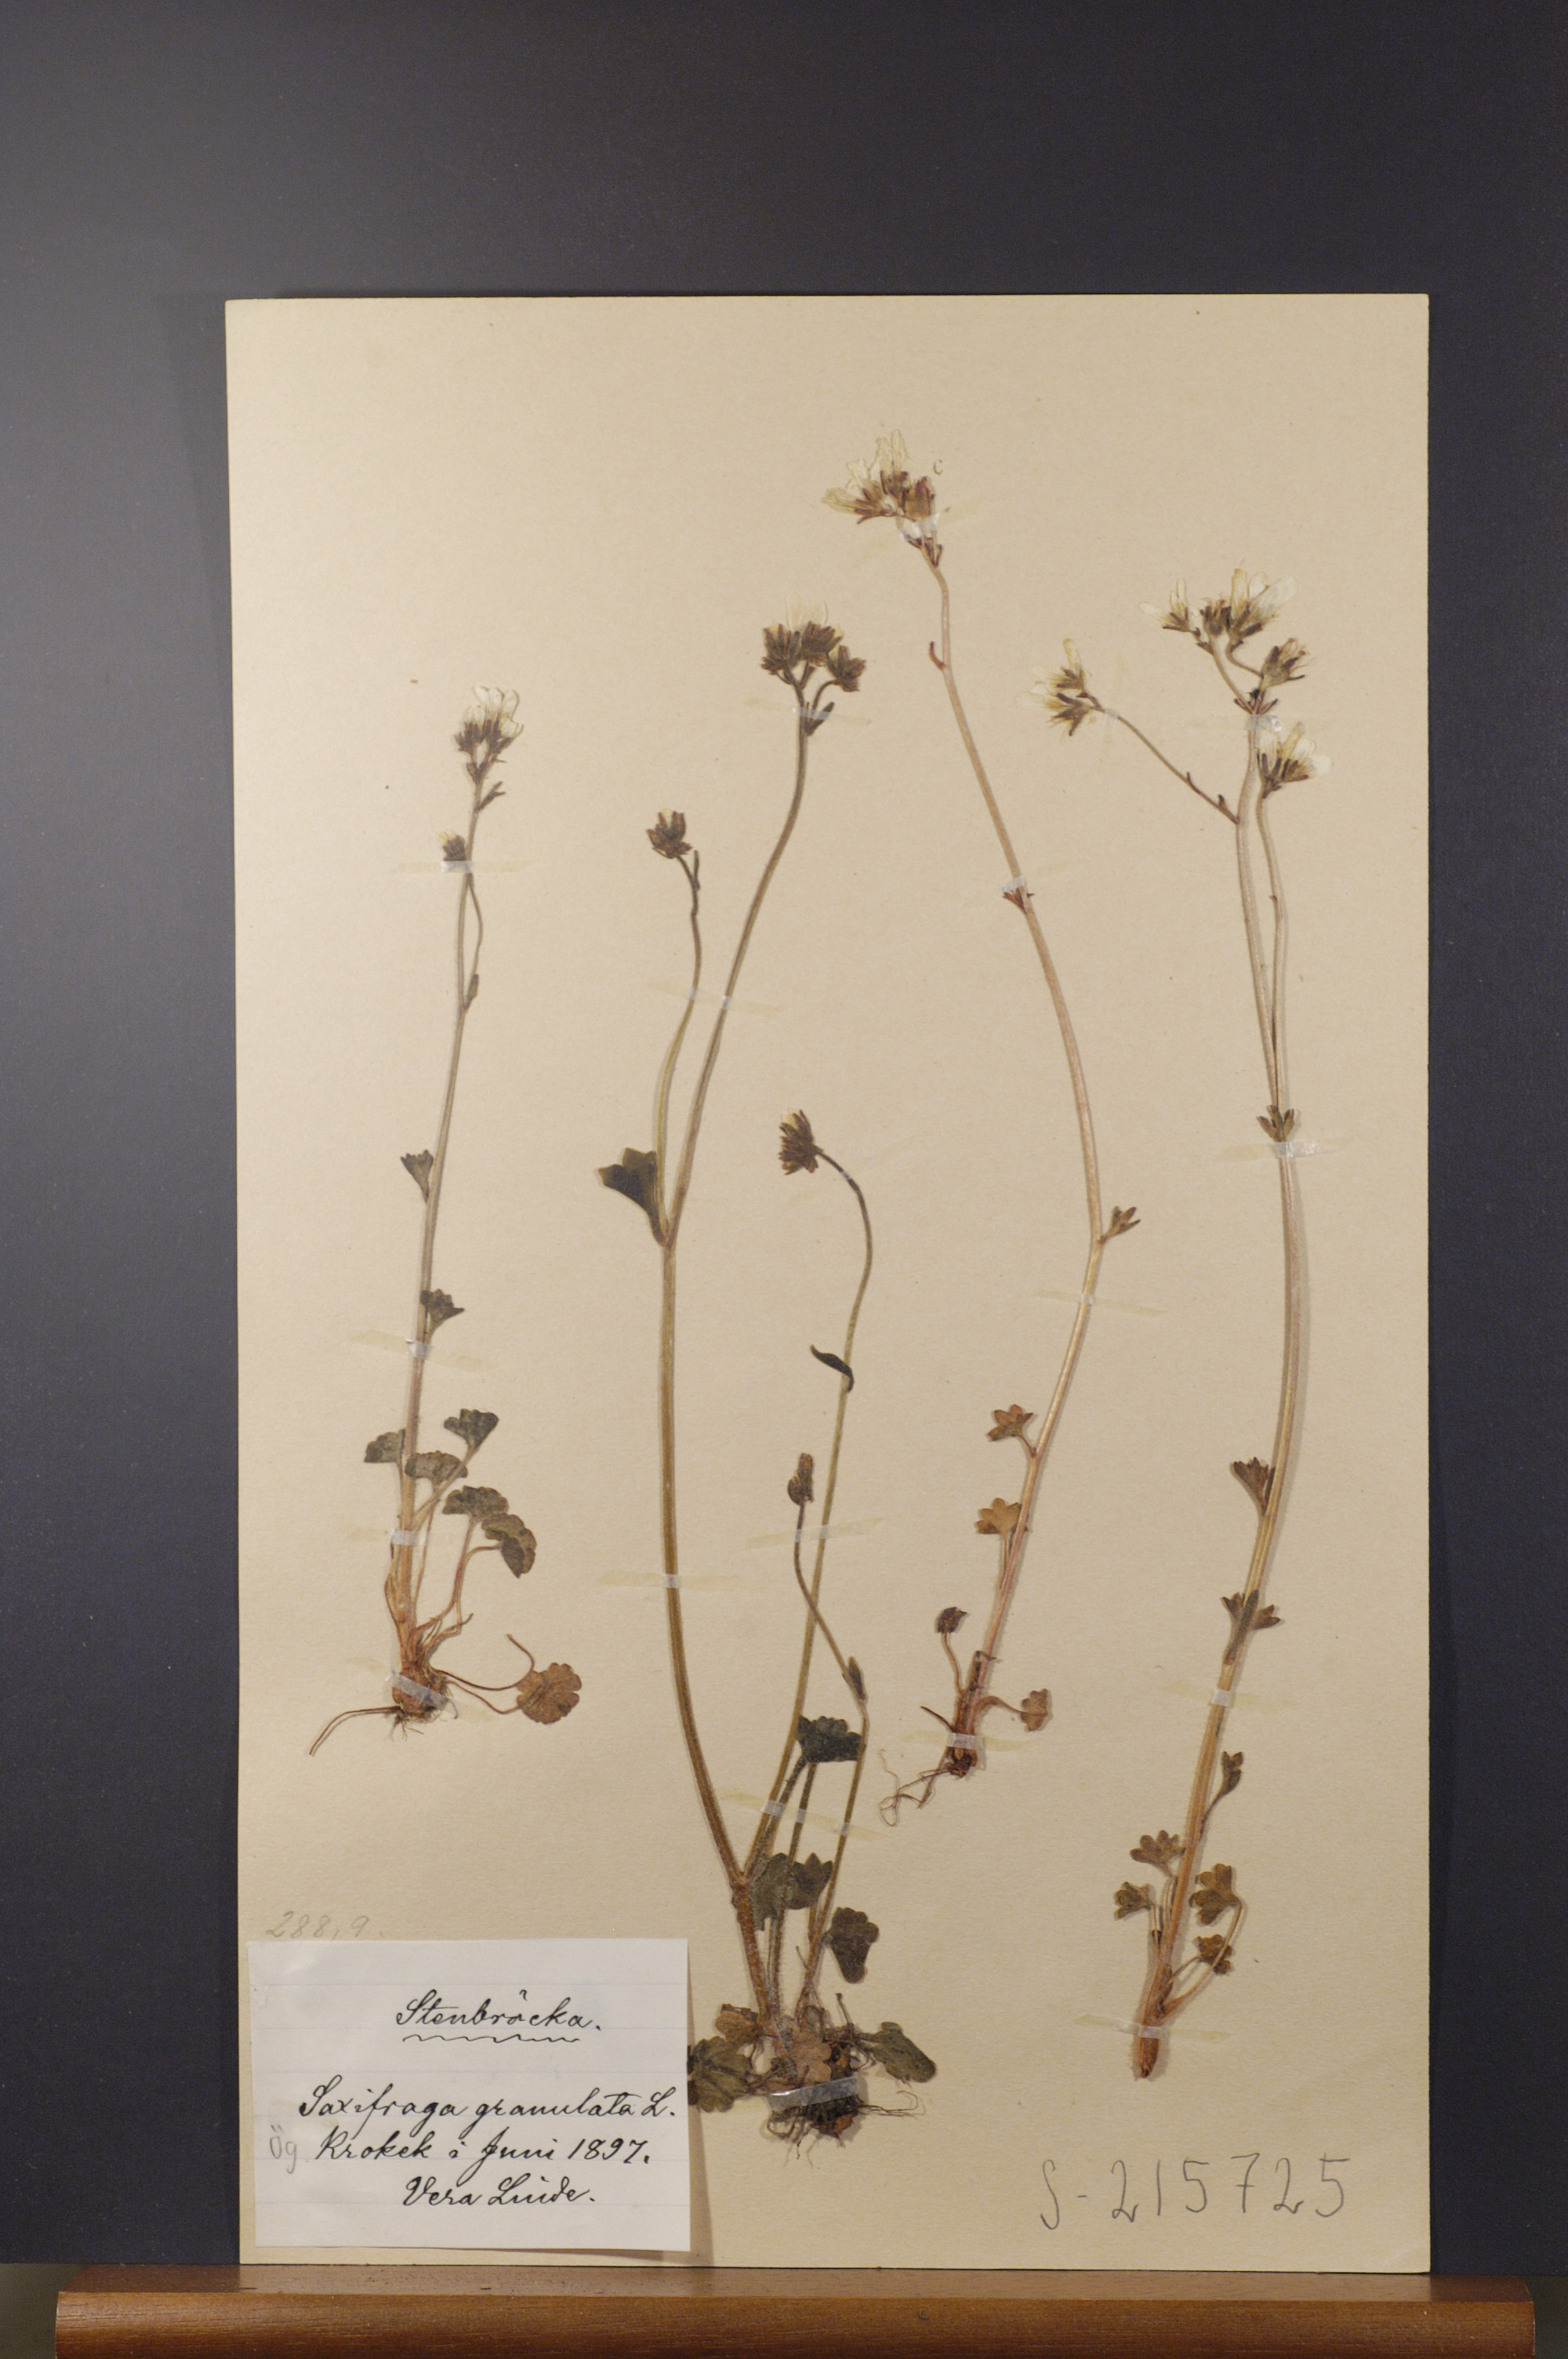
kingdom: Plantae
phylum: Tracheophyta
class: Magnoliopsida
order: Saxifragales
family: Saxifragaceae
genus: Saxifraga
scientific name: Saxifraga granulata
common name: Meadow saxifrage
